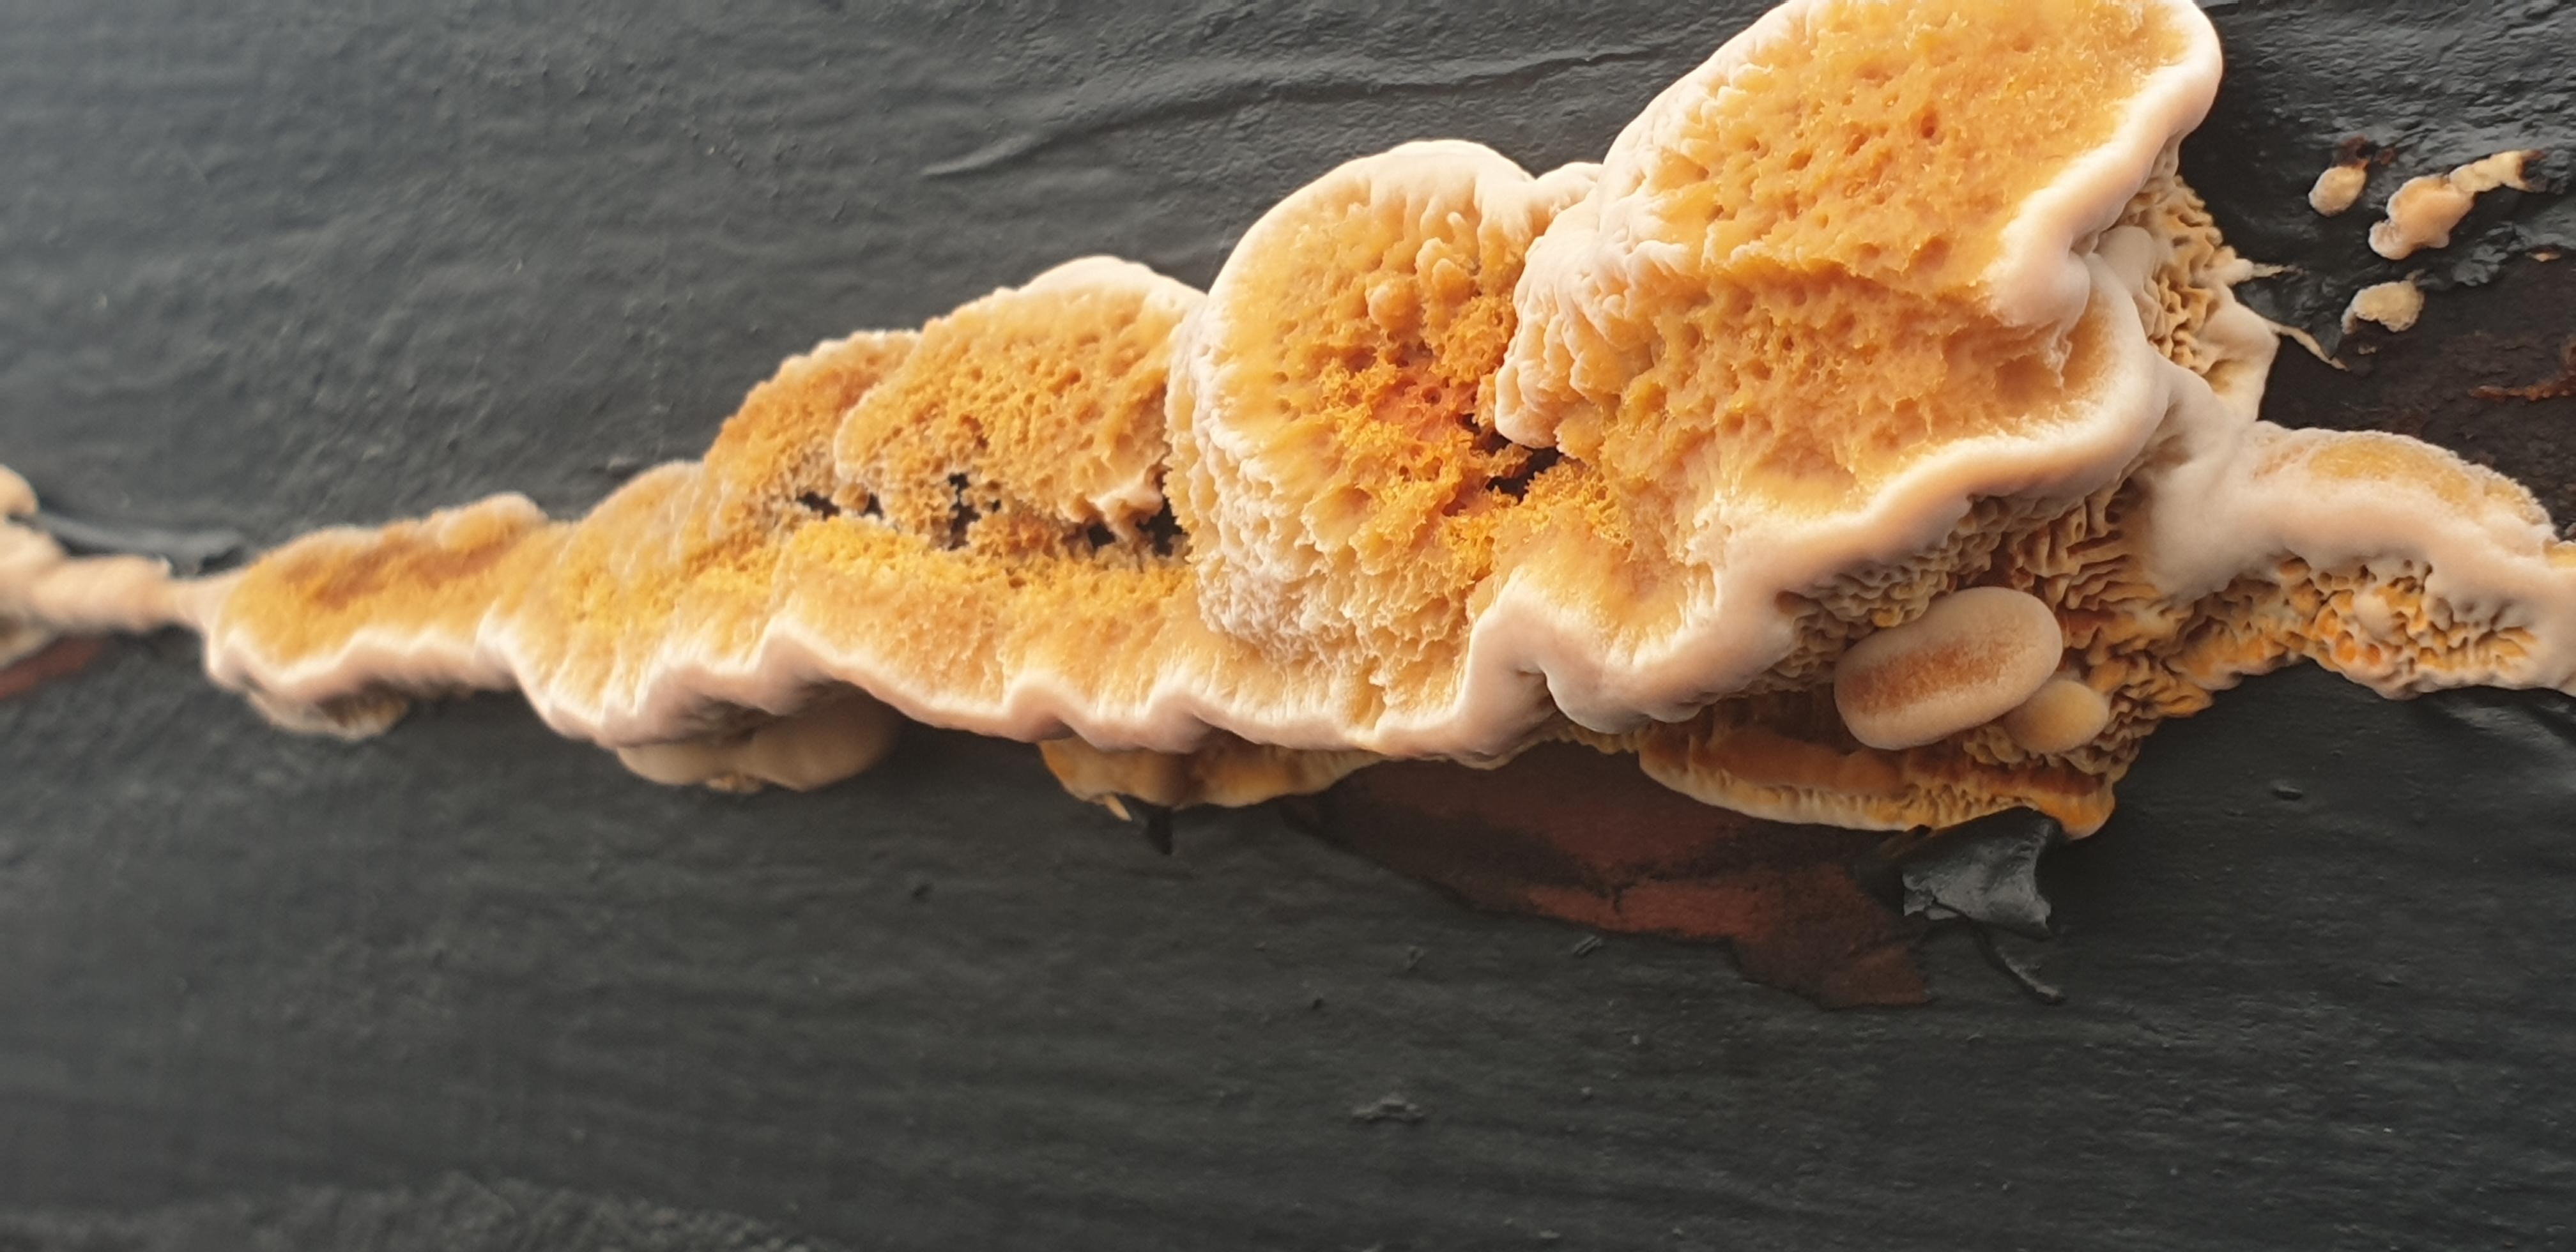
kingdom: Fungi
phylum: Basidiomycota
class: Agaricomycetes
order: Gloeophyllales
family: Gloeophyllaceae
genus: Gloeophyllum
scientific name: Gloeophyllum sepiarium
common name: fyrre-korkhat
